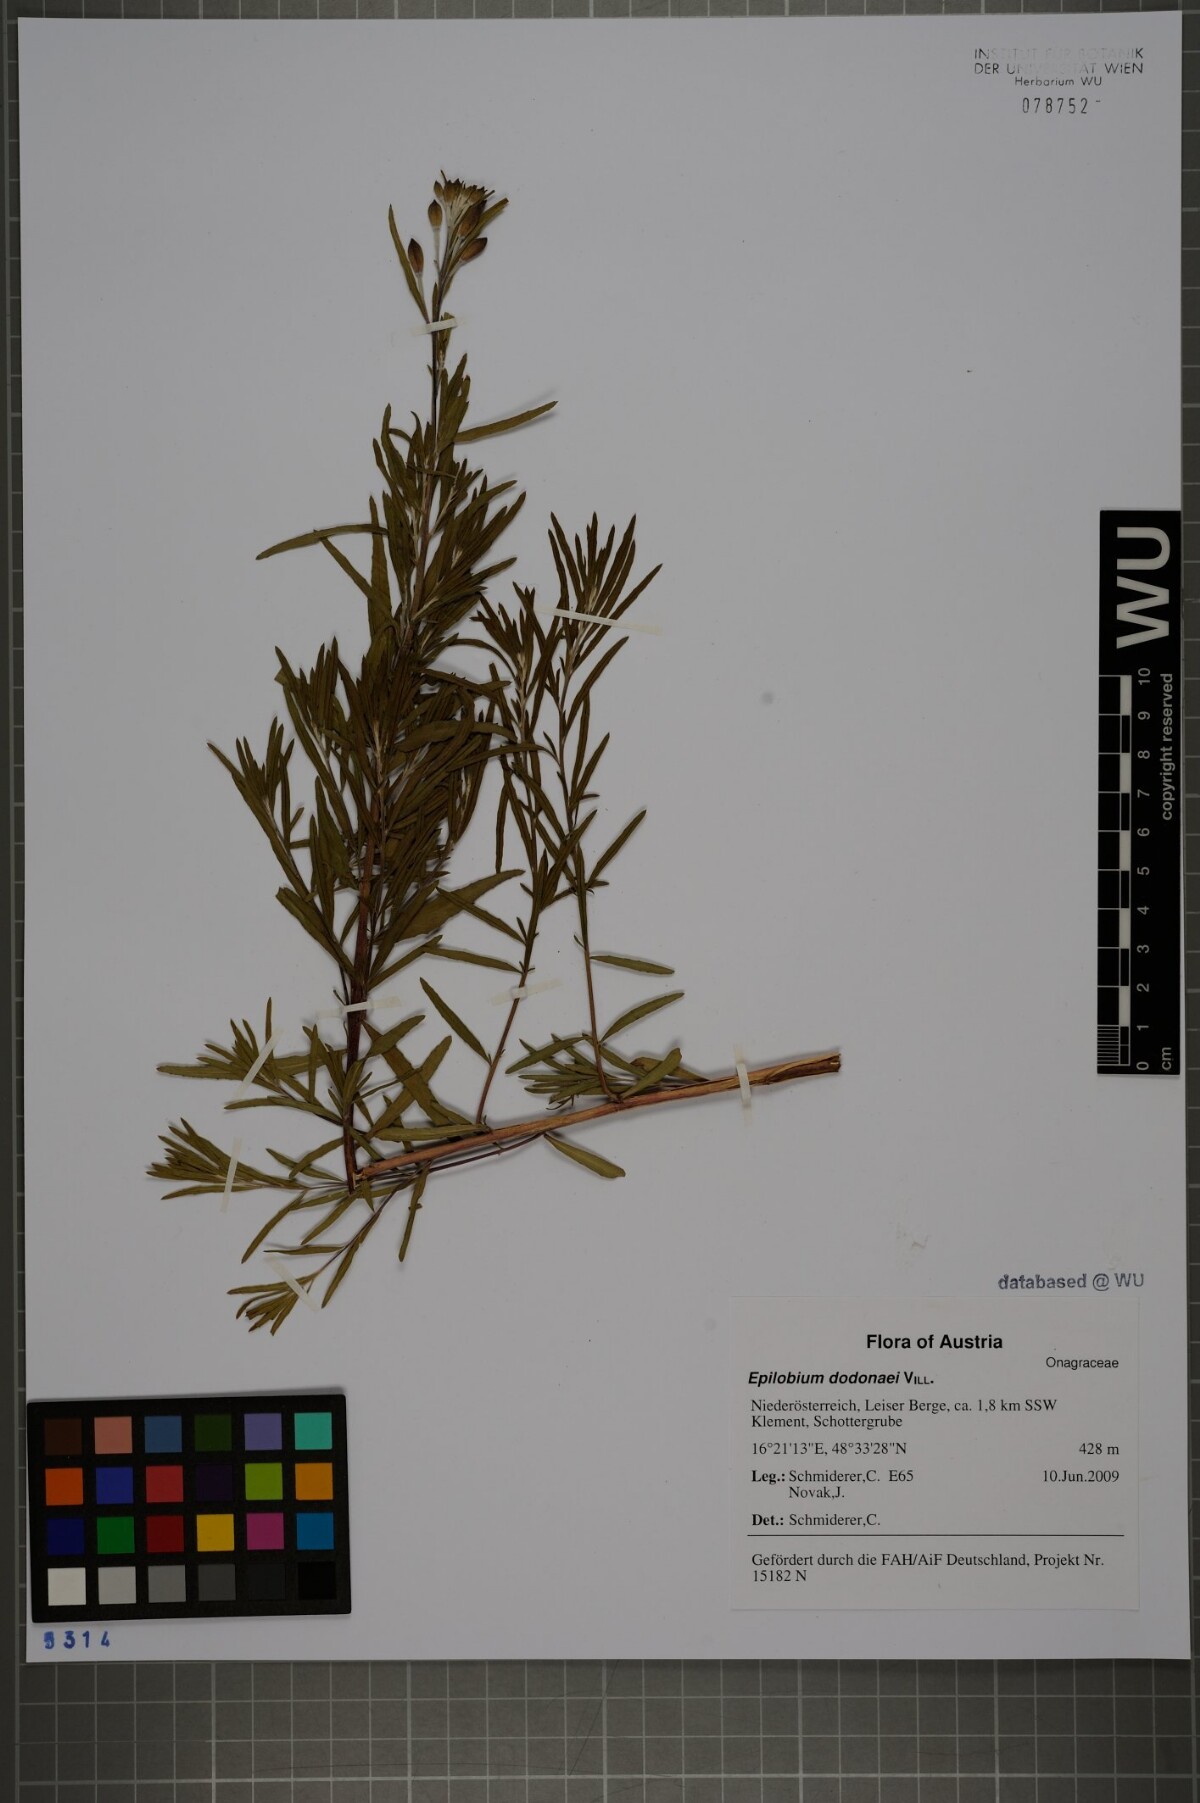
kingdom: Plantae
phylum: Tracheophyta
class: Magnoliopsida
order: Myrtales
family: Onagraceae
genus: Chamaenerion
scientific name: Chamaenerion dodonaei
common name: Rosemary-leaved willowherb
